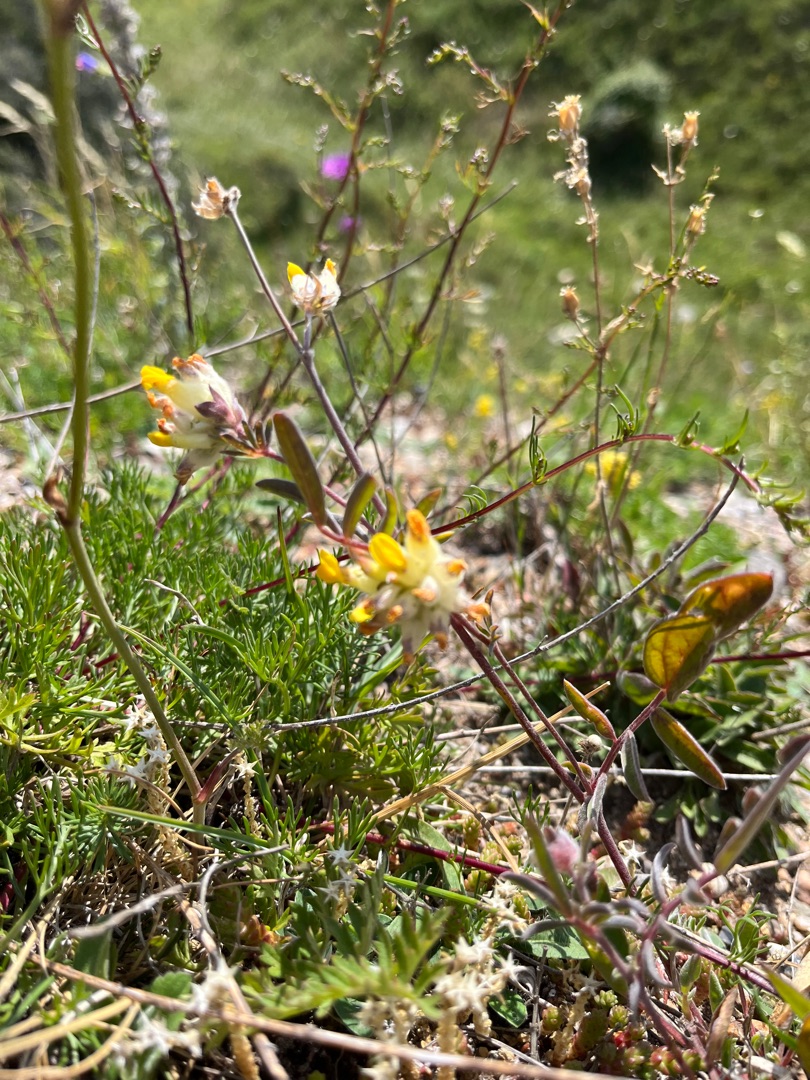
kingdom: Plantae
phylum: Tracheophyta
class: Magnoliopsida
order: Fabales
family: Fabaceae
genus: Anthyllis
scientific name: Anthyllis vulneraria
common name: Rundbælg
